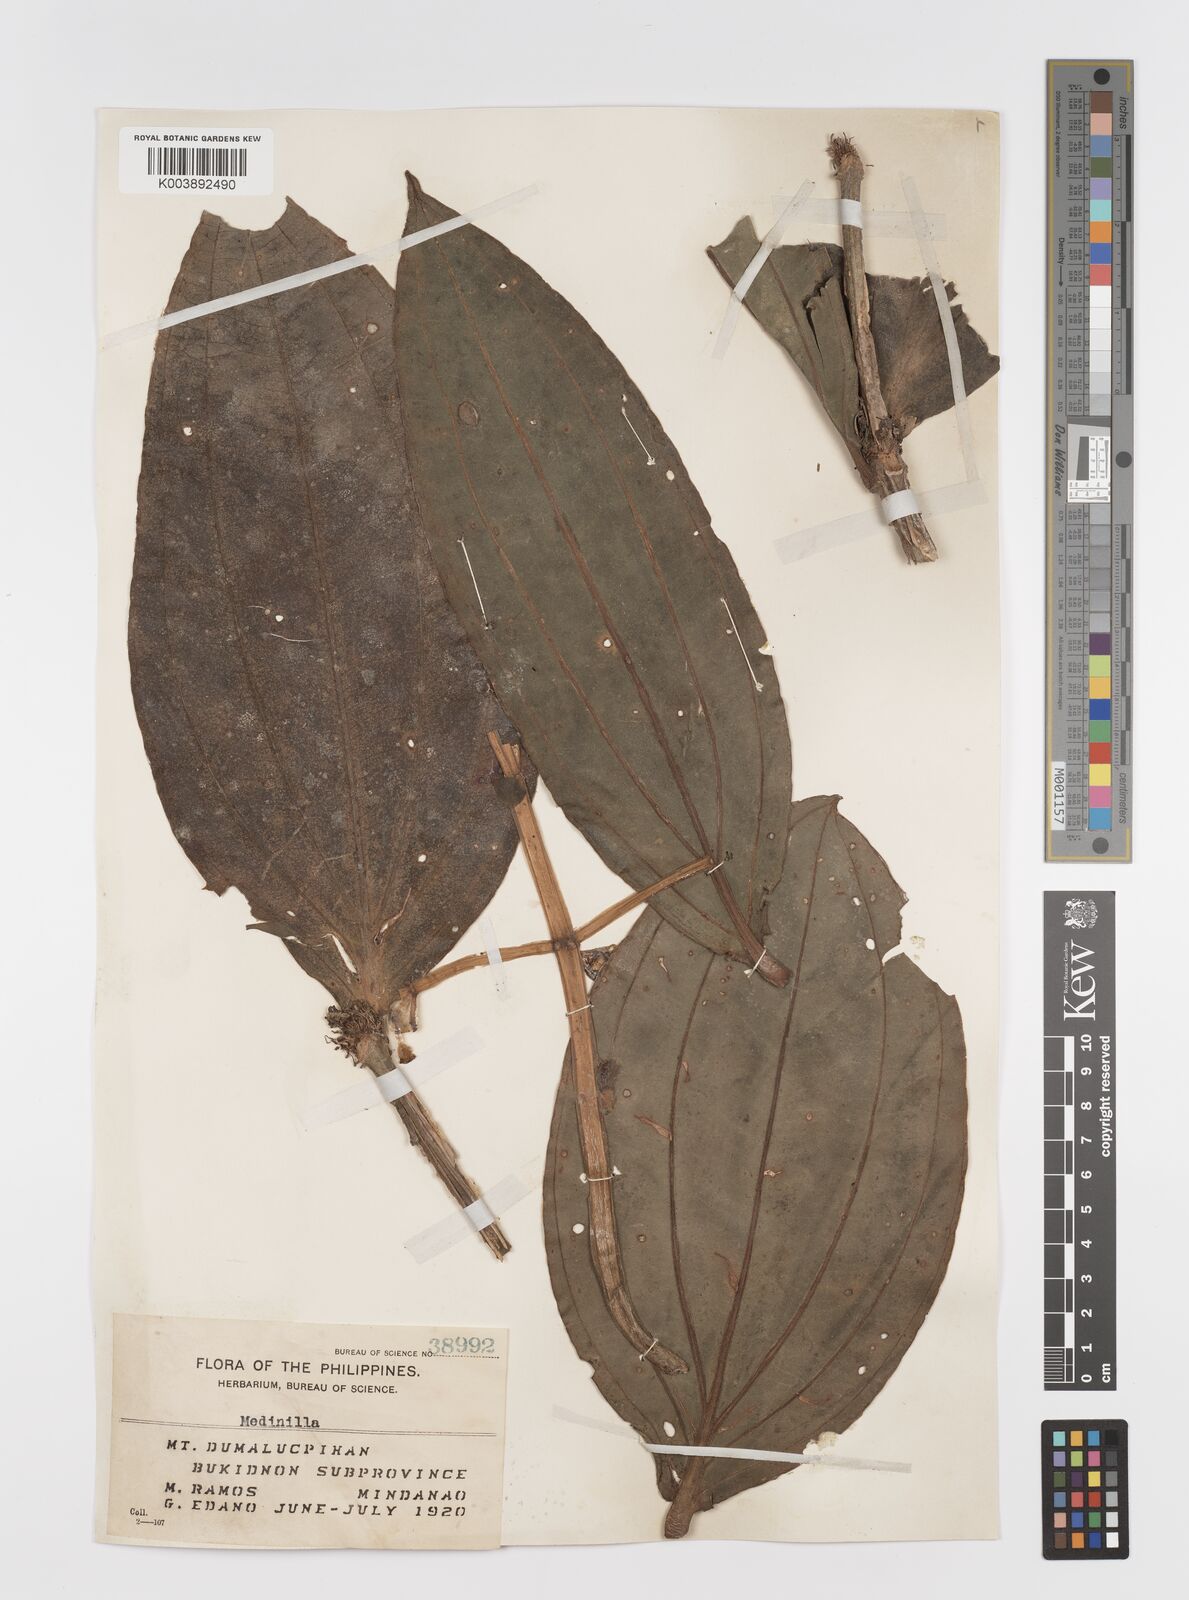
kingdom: Plantae
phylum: Tracheophyta
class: Magnoliopsida
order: Myrtales
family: Melastomataceae
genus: Medinilla
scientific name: Medinilla compressicaulis
